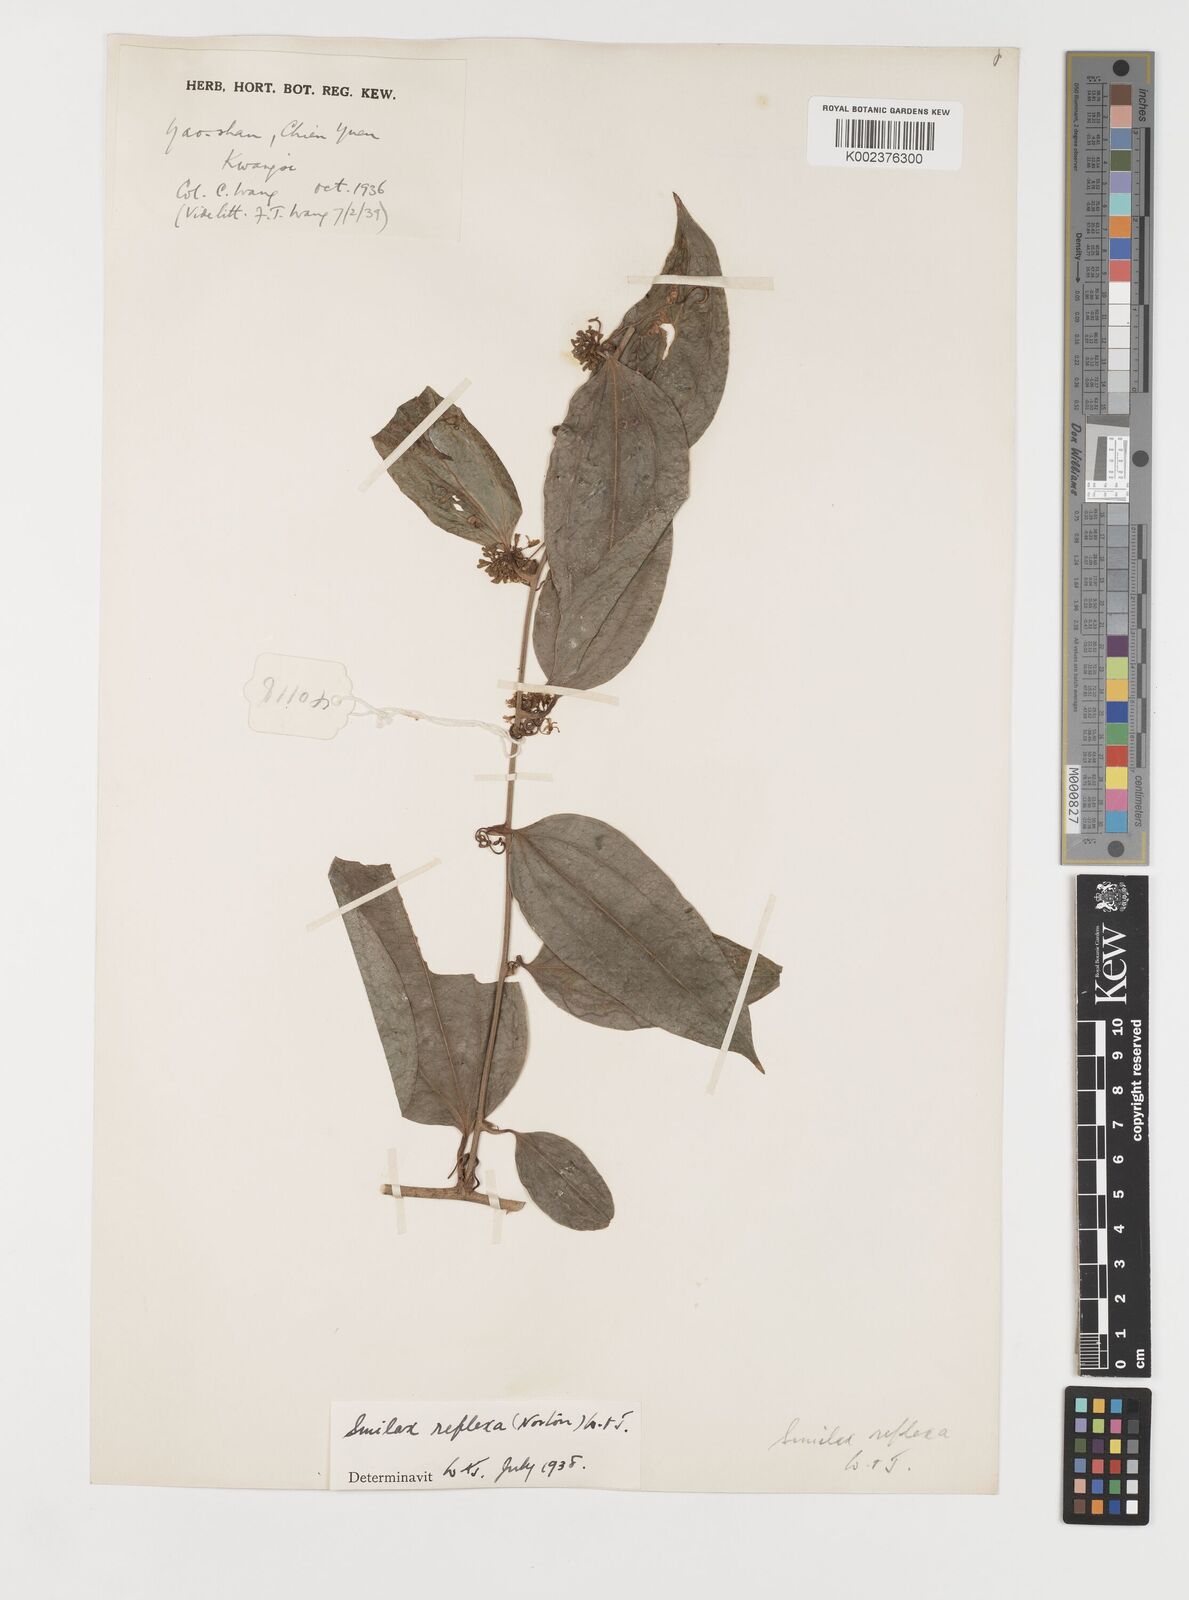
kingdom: Plantae
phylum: Tracheophyta
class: Liliopsida
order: Liliales
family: Smilacaceae
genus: Smilax
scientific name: Smilax chapaensis
